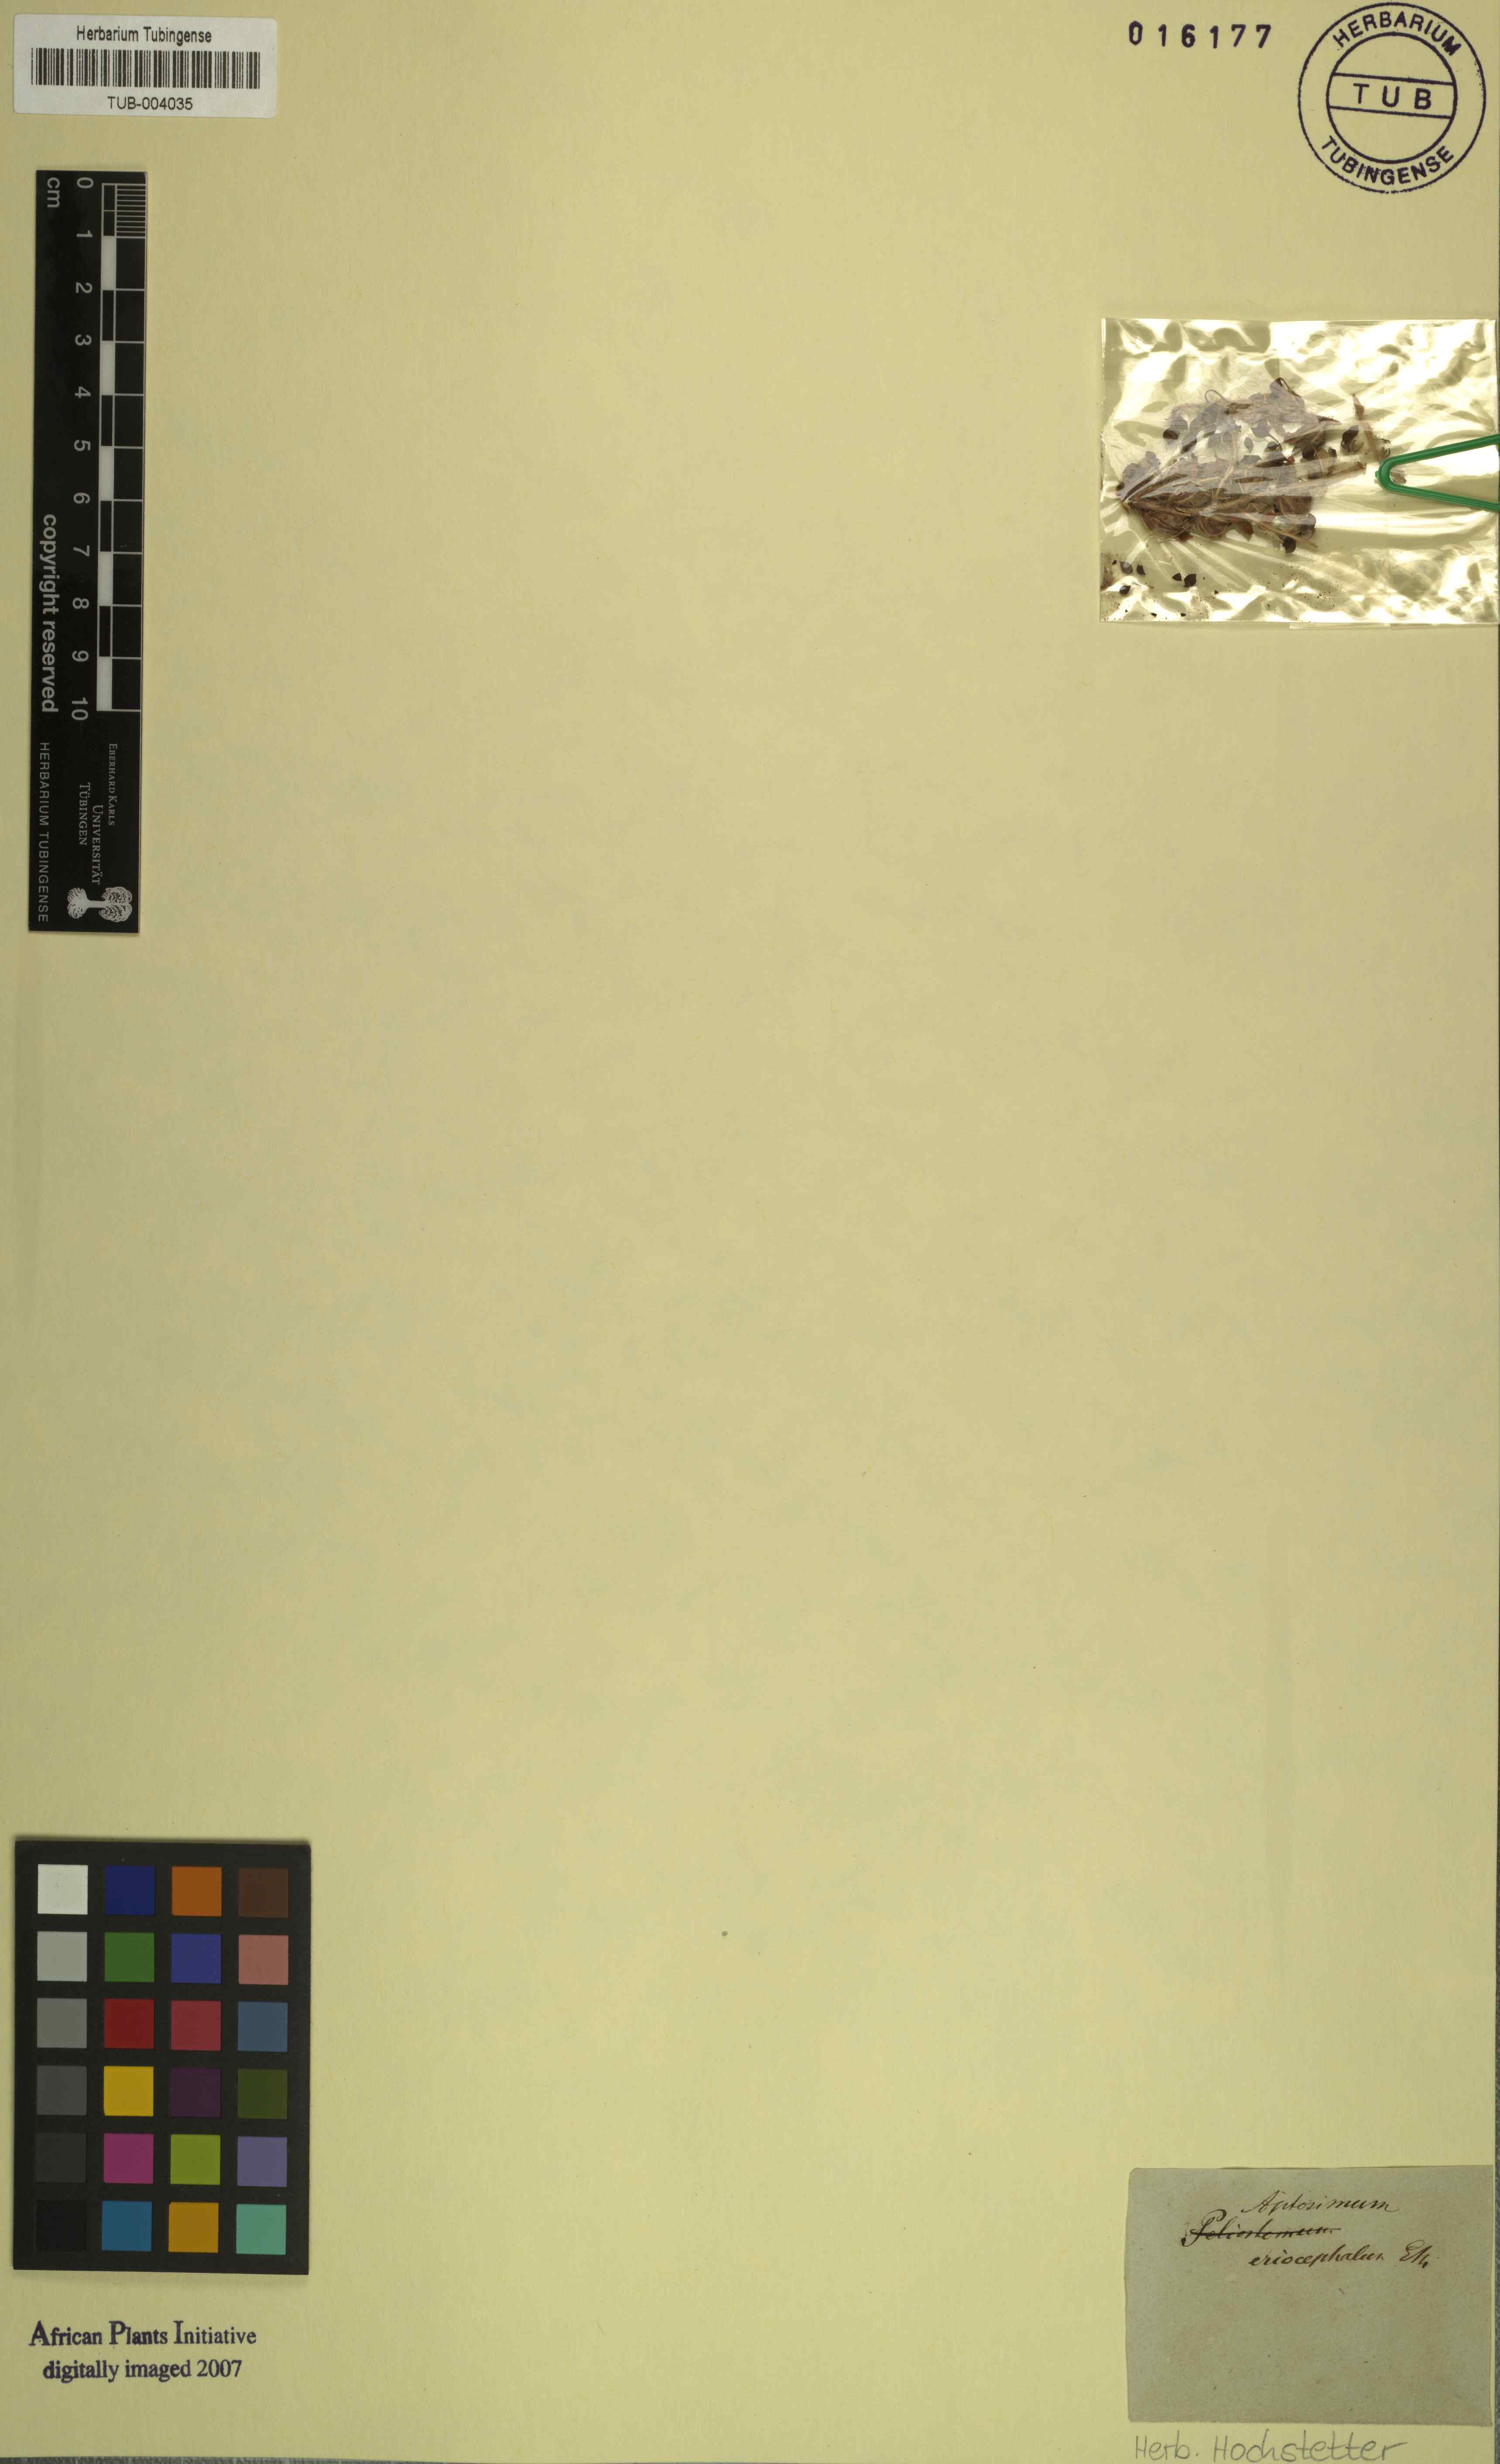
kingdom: Plantae
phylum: Tracheophyta
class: Magnoliopsida
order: Lamiales
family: Scrophulariaceae
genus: Aptosimum
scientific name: Aptosimum eriocephalum
